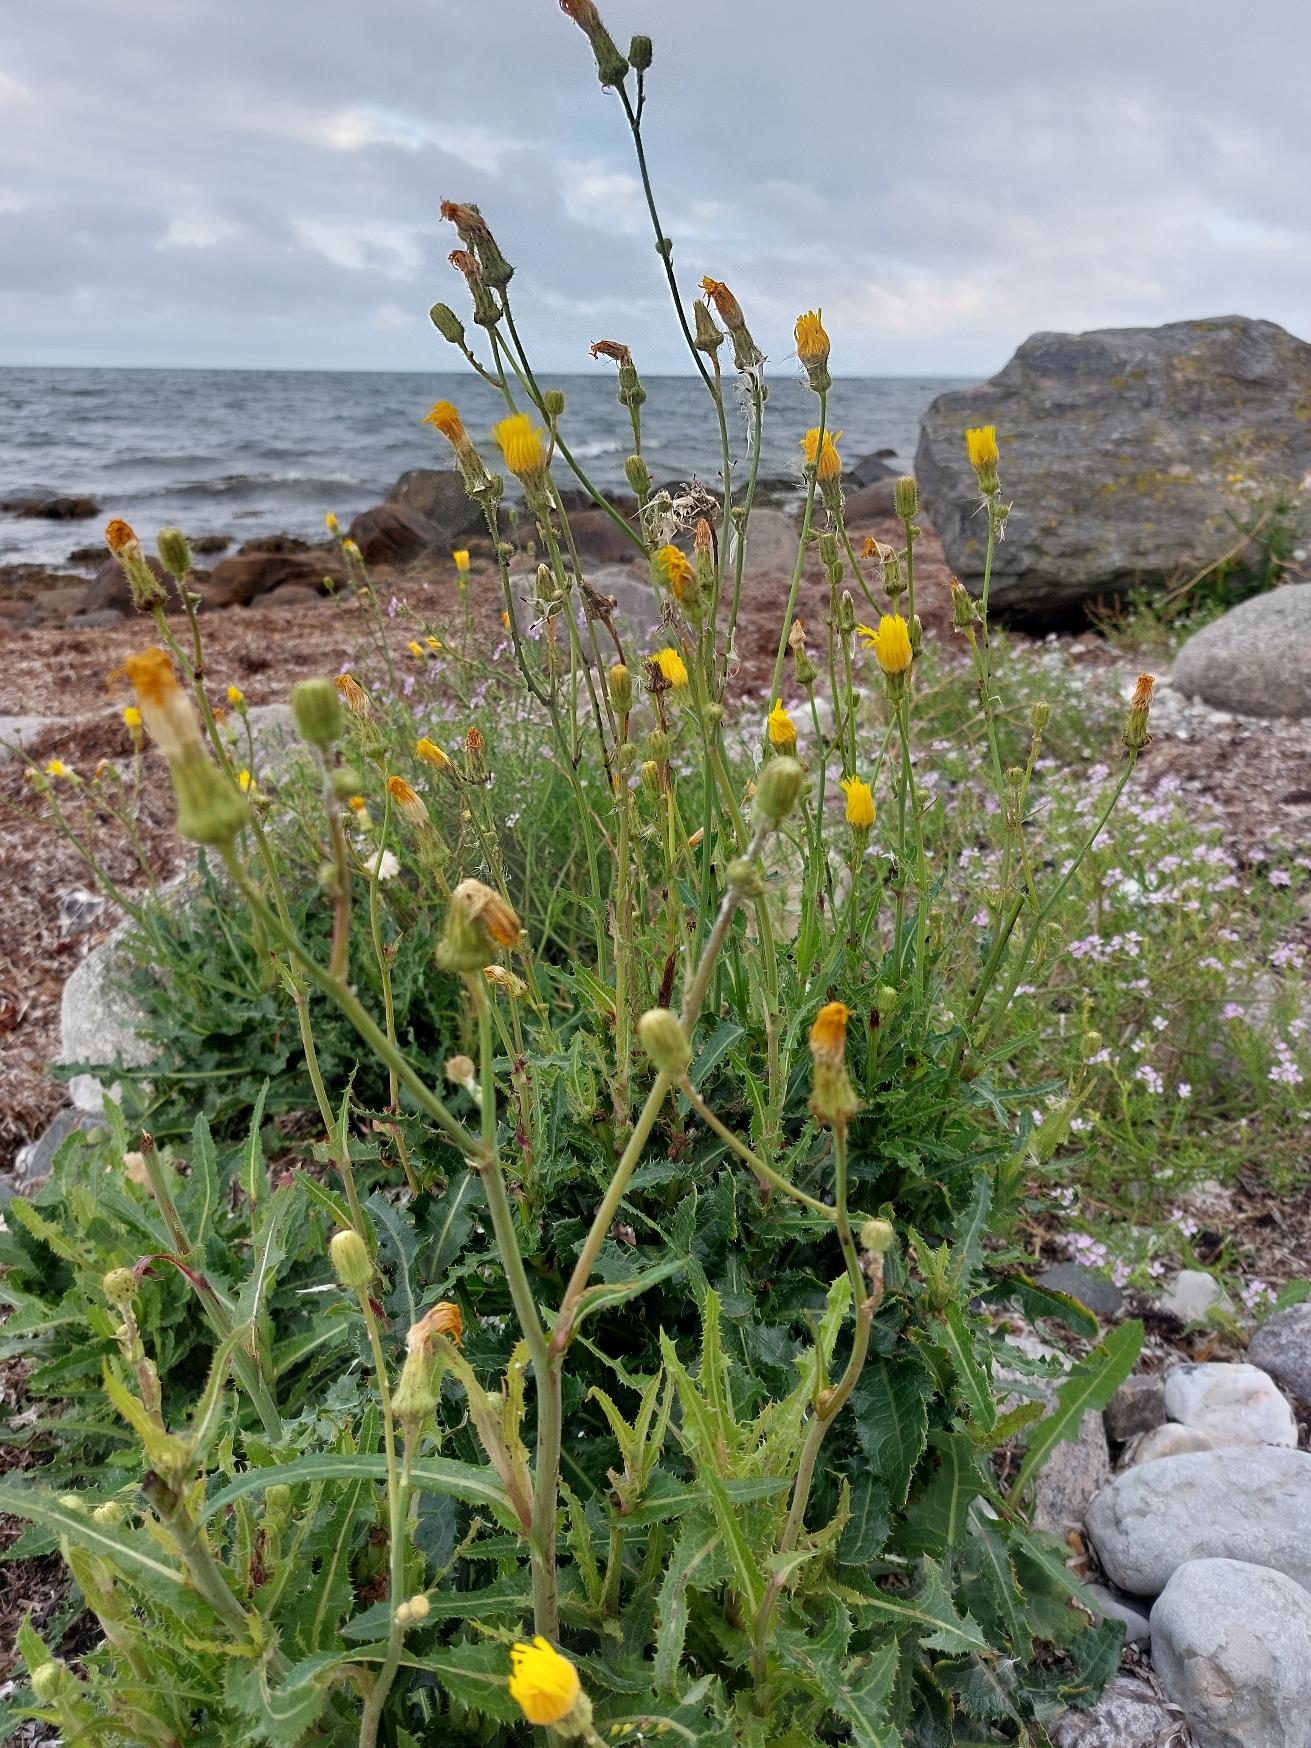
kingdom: Plantae
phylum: Tracheophyta
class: Magnoliopsida
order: Asterales
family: Asteraceae
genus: Sonchus
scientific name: Sonchus arvensis
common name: Ager-svinemælk
